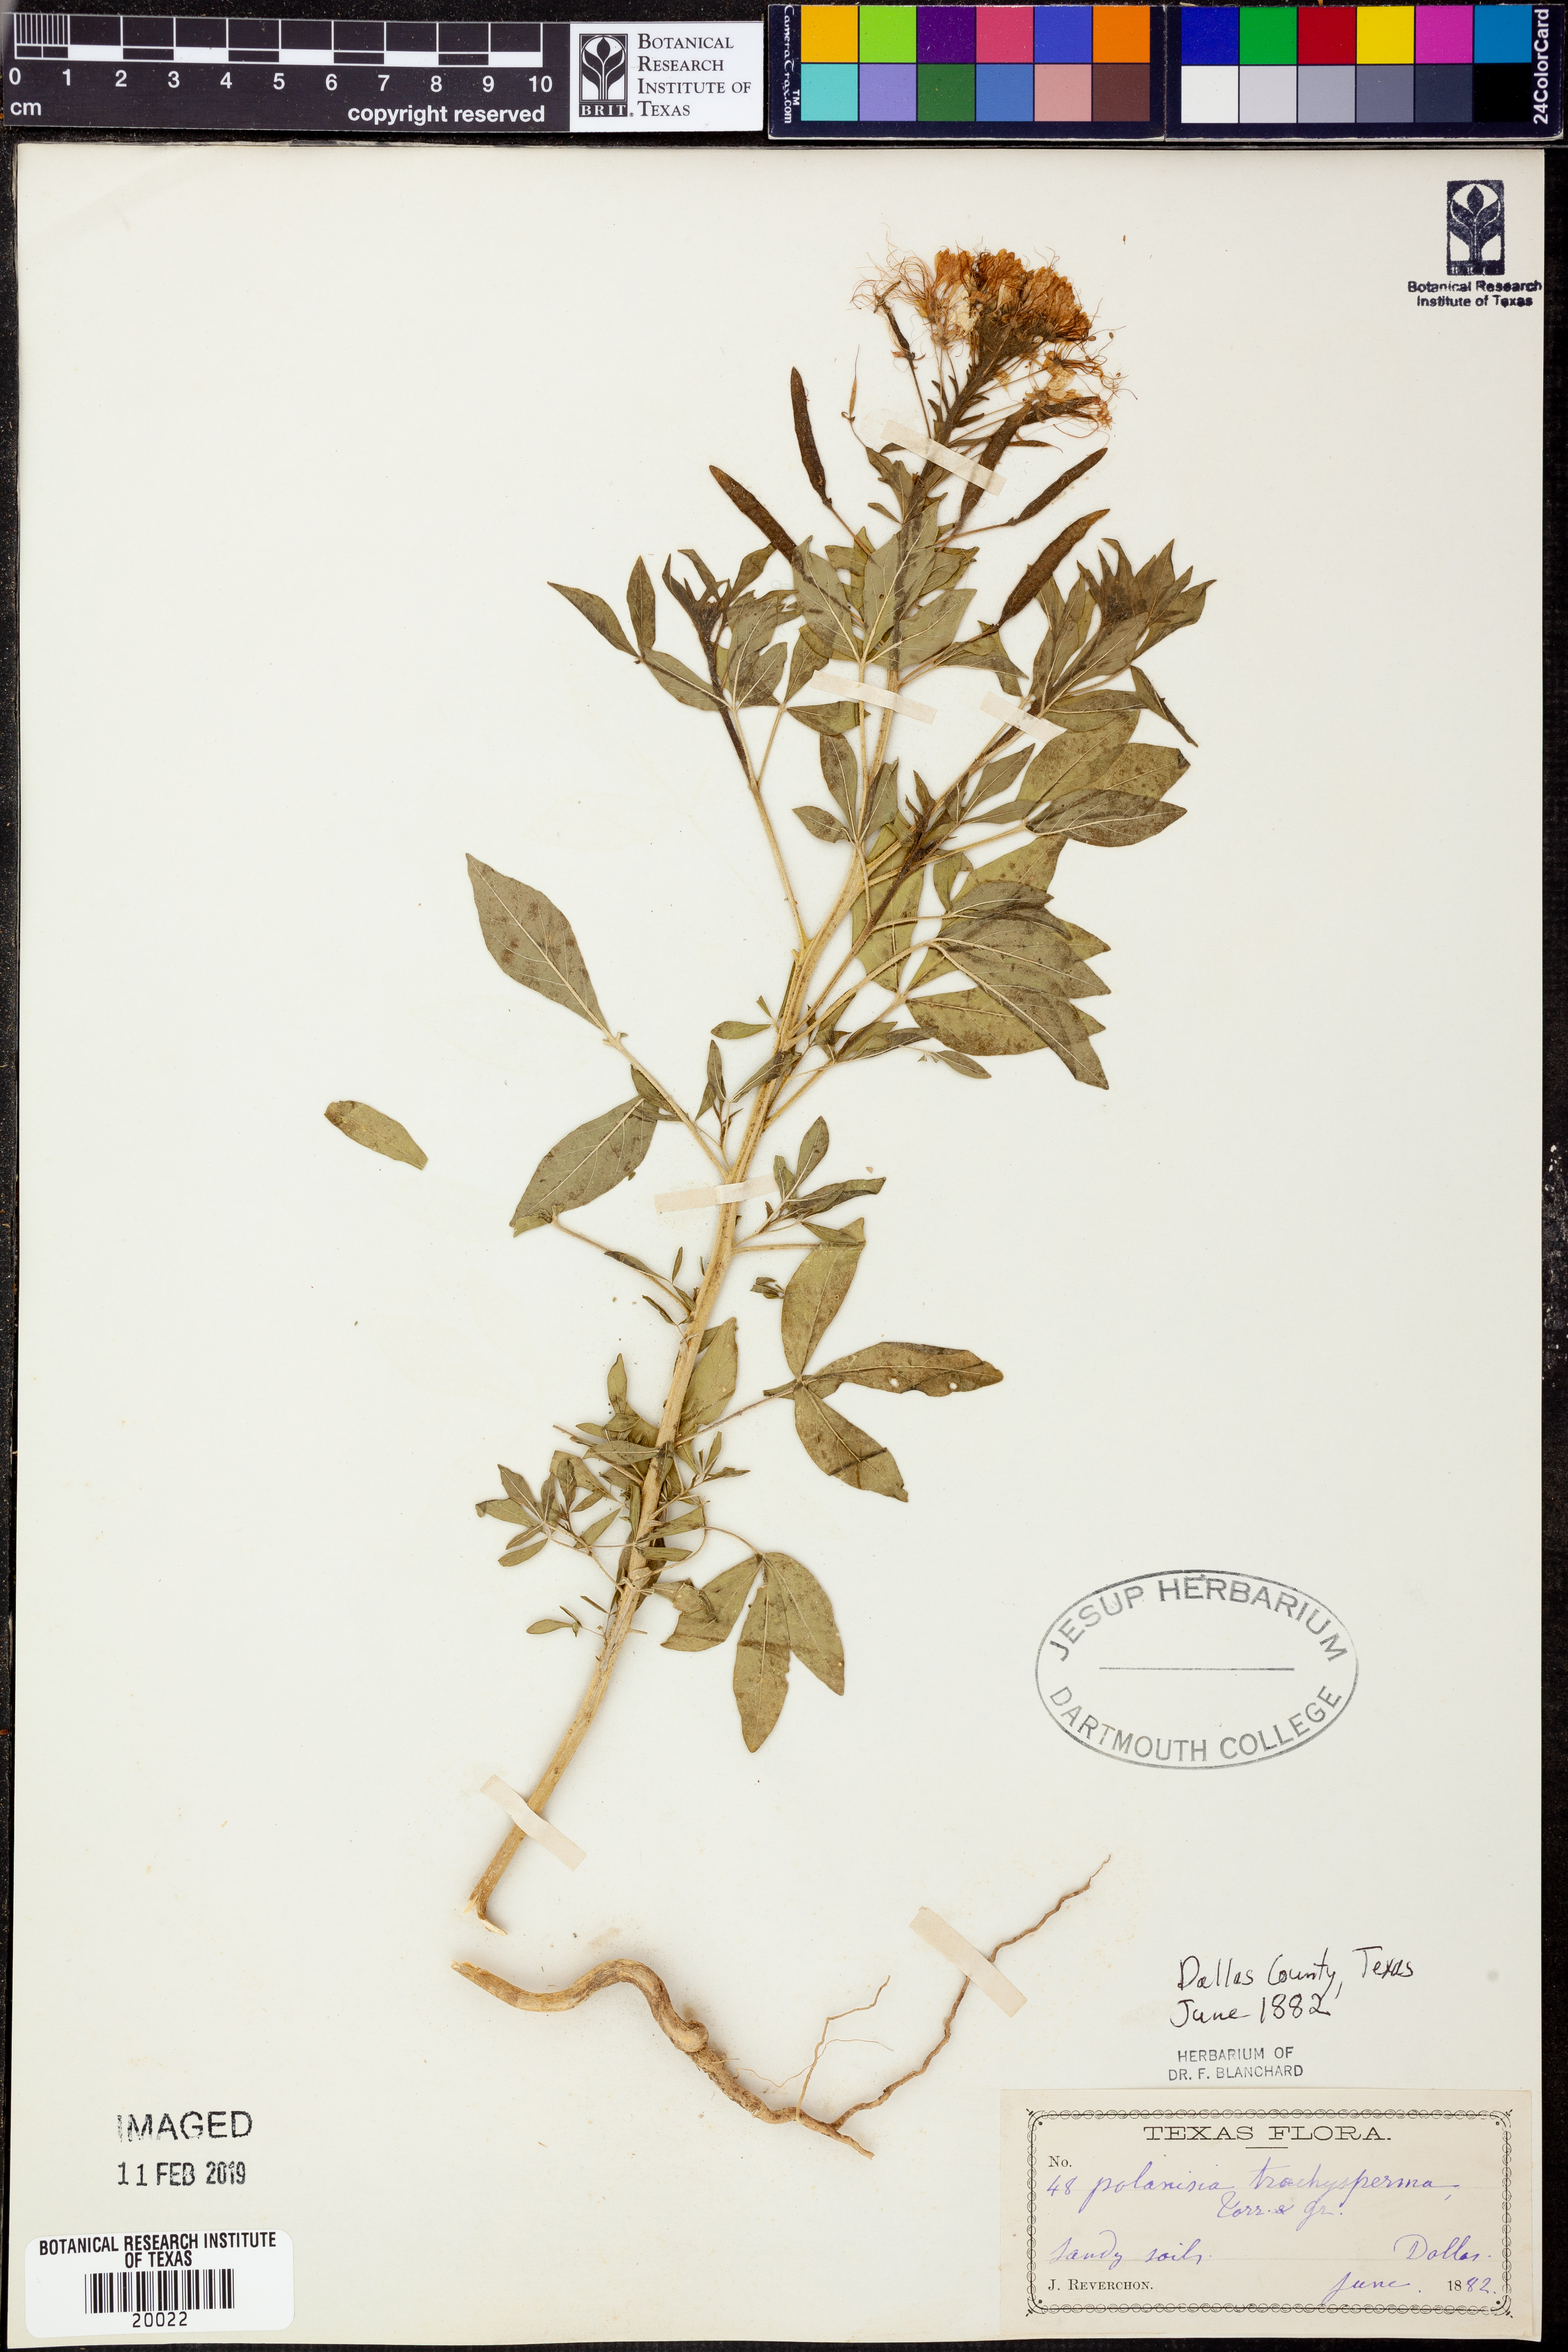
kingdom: Plantae
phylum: Tracheophyta
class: Magnoliopsida
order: Brassicales
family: Cleomaceae
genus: Polanisia
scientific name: Polanisia trachysperma
